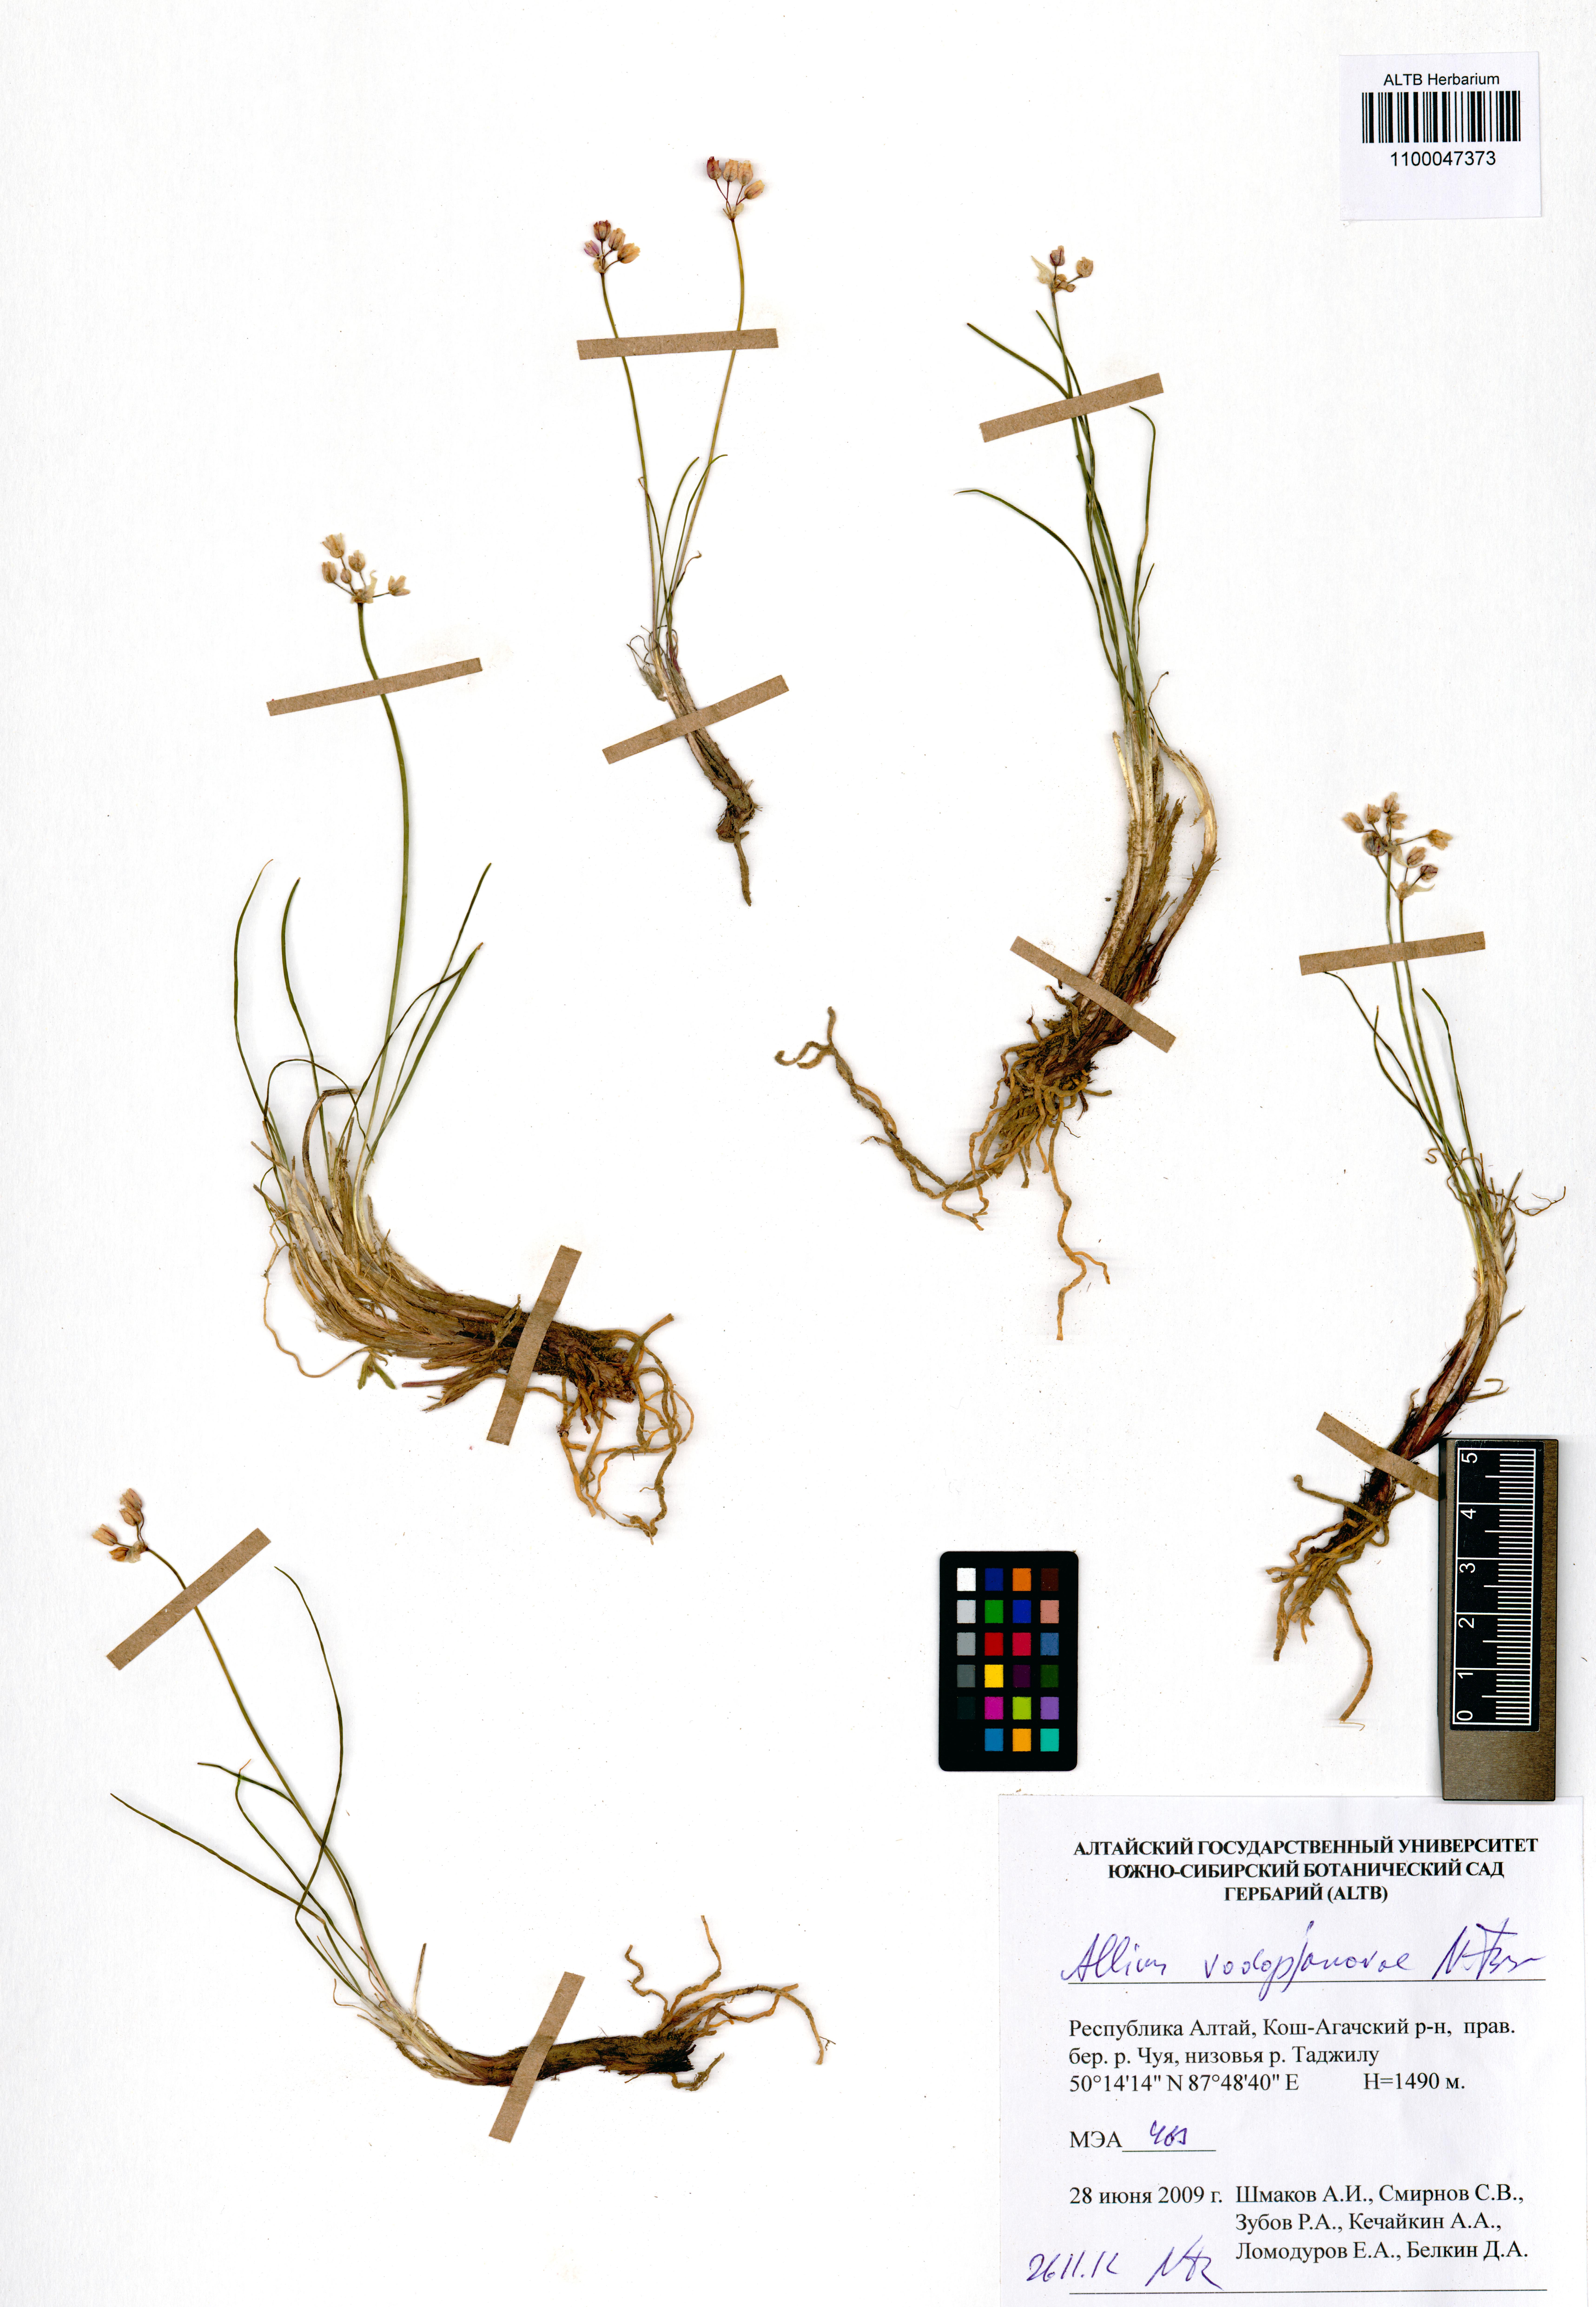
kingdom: Plantae
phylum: Tracheophyta
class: Liliopsida
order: Asparagales
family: Amaryllidaceae
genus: Allium
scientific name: Allium vodopjanovae
